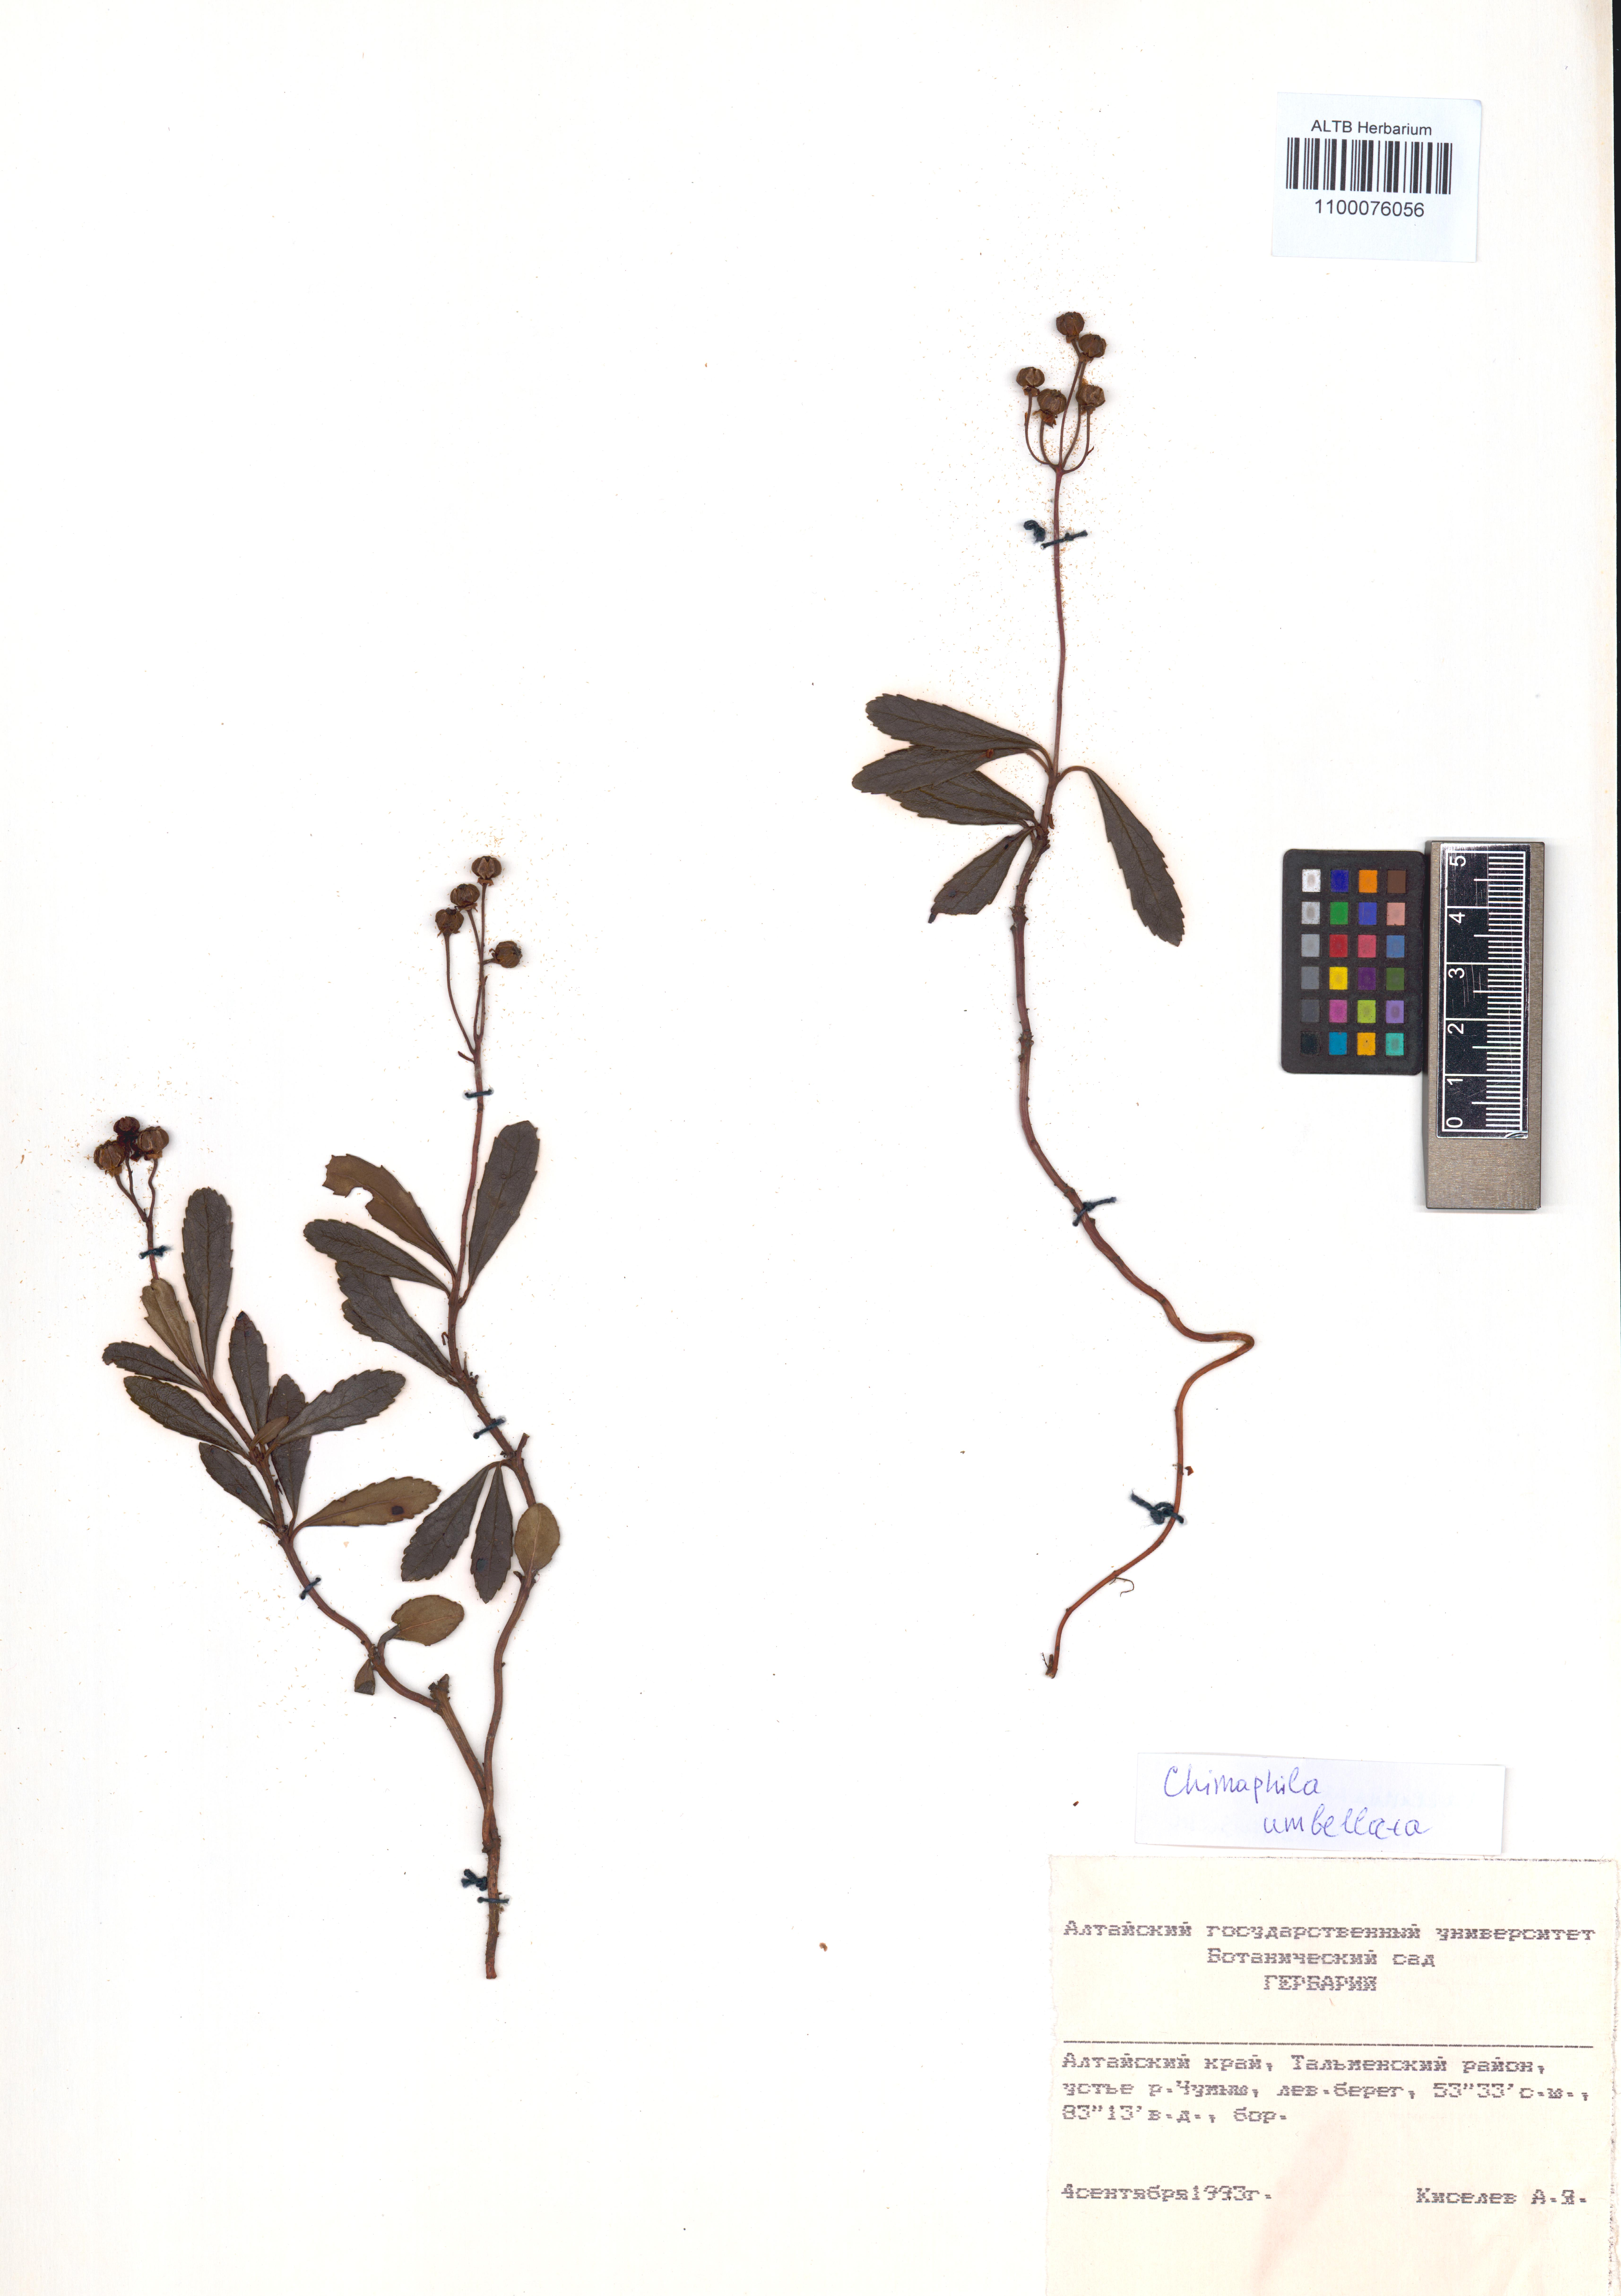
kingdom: Plantae
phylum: Tracheophyta
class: Magnoliopsida
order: Ericales
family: Ericaceae
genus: Chimaphila
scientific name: Chimaphila umbellata
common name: Pipsissewa
